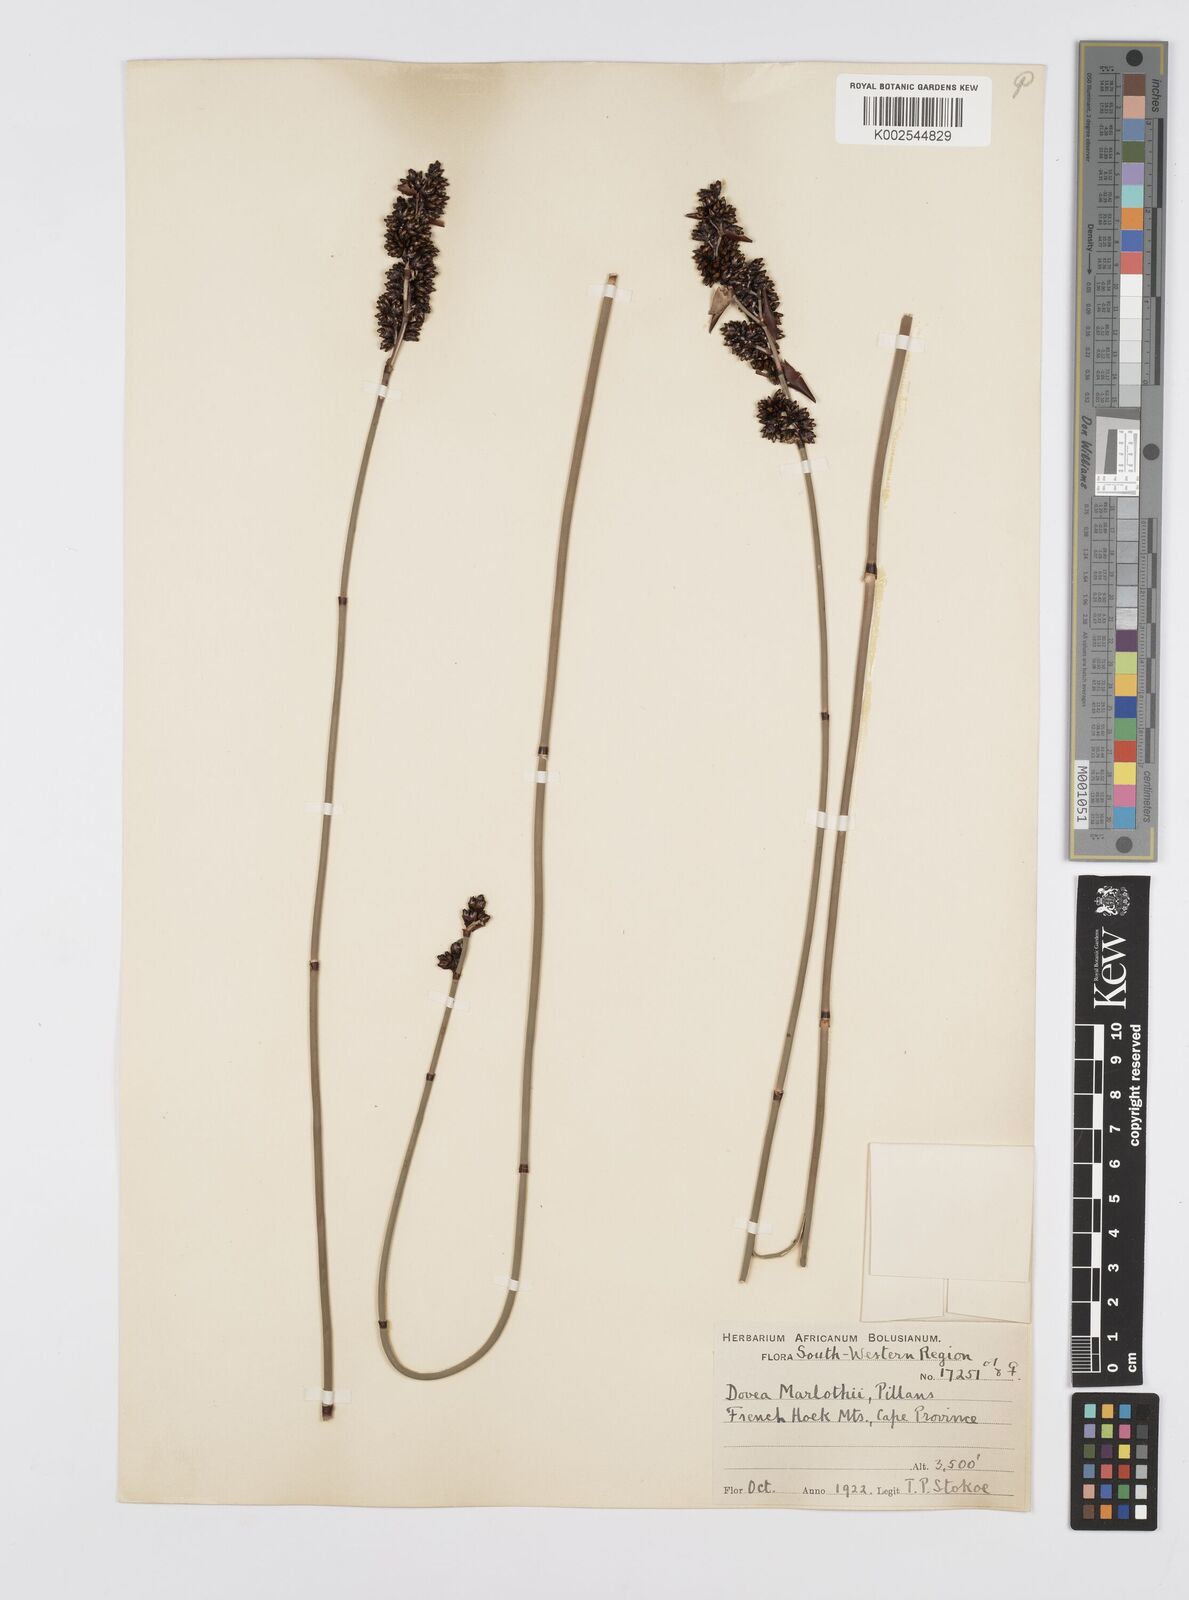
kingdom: Plantae
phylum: Tracheophyta
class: Liliopsida
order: Poales
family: Restionaceae
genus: Elegia
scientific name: Elegia marlothii
